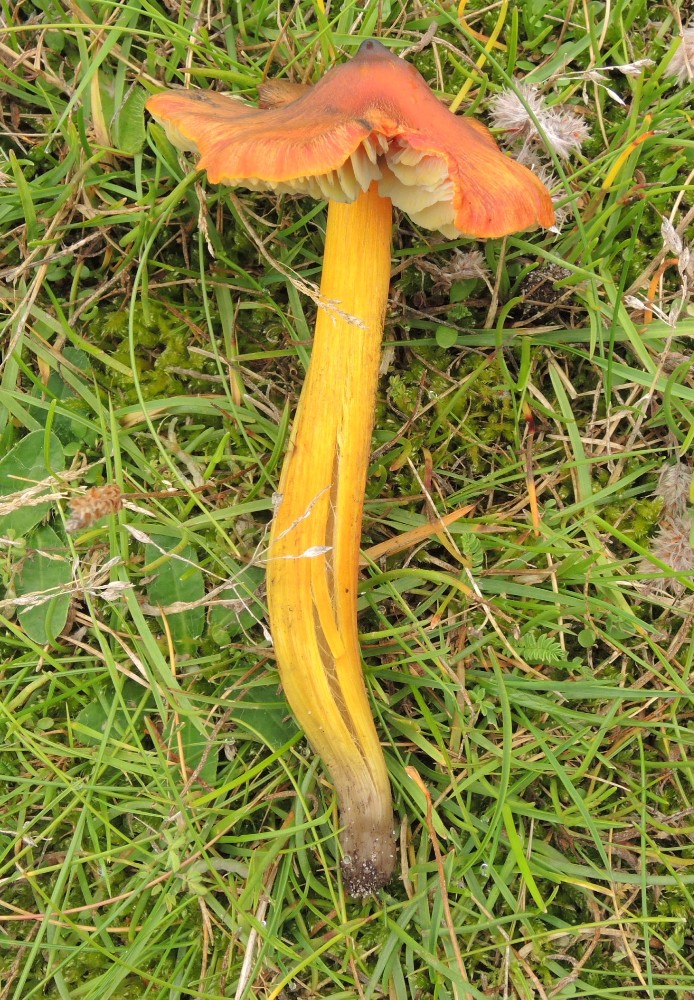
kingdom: Fungi
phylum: Basidiomycota
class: Agaricomycetes
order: Agaricales
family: Hygrophoraceae
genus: Hygrocybe
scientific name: Hygrocybe conica
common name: kegle-vokshat
